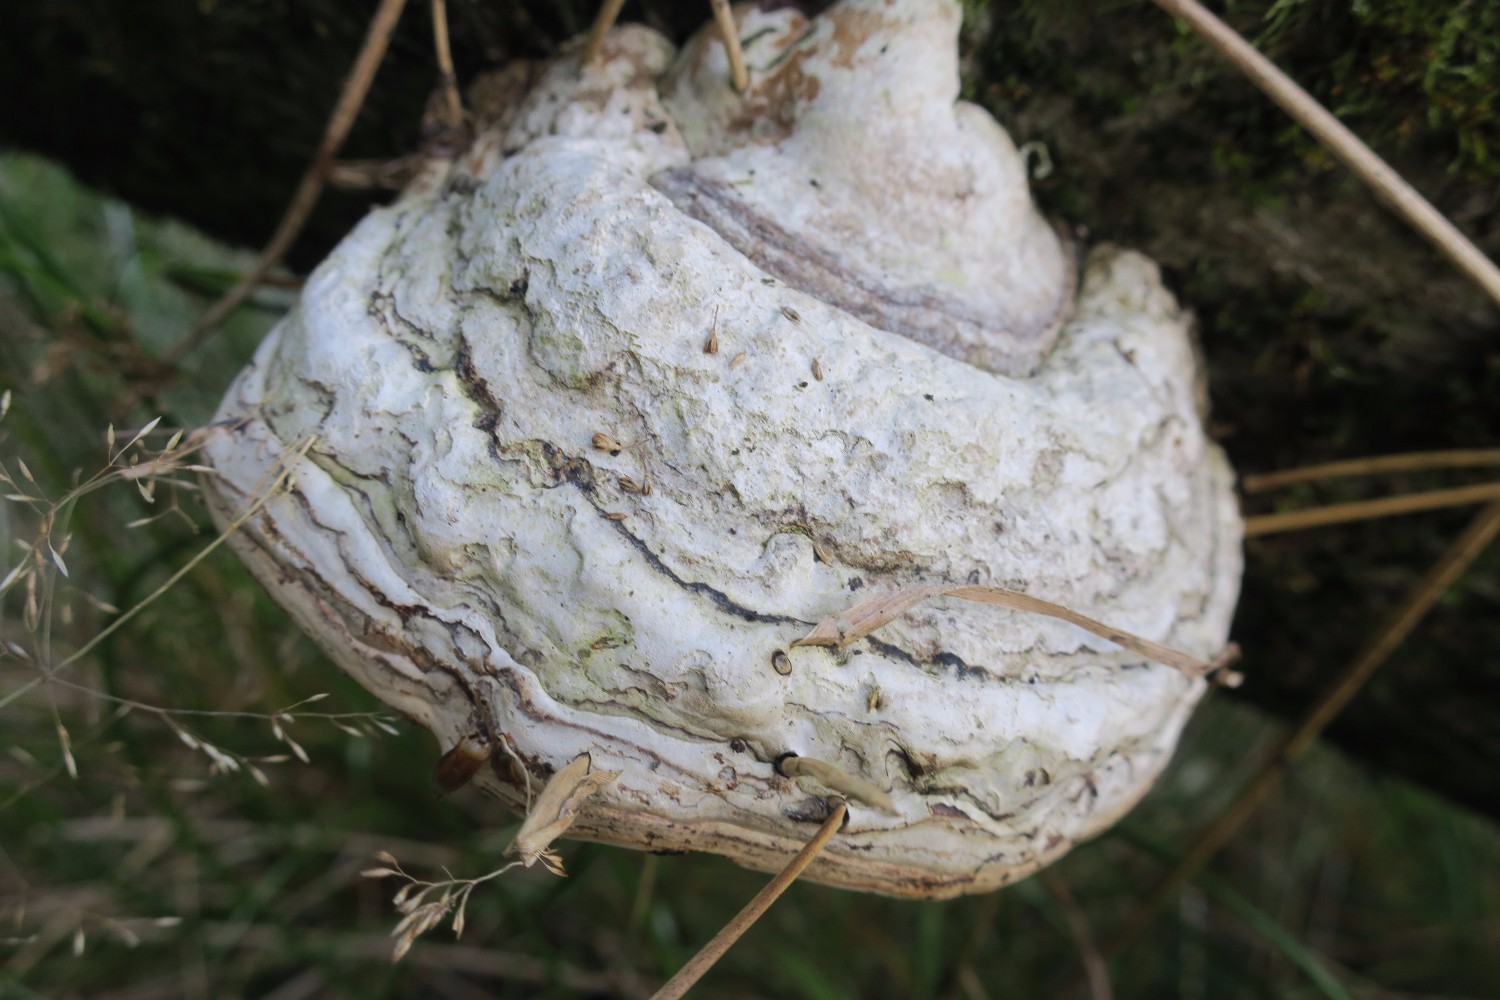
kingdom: Fungi
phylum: Basidiomycota
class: Agaricomycetes
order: Polyporales
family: Polyporaceae
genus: Fomes
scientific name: Fomes fomentarius
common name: tøndersvamp
